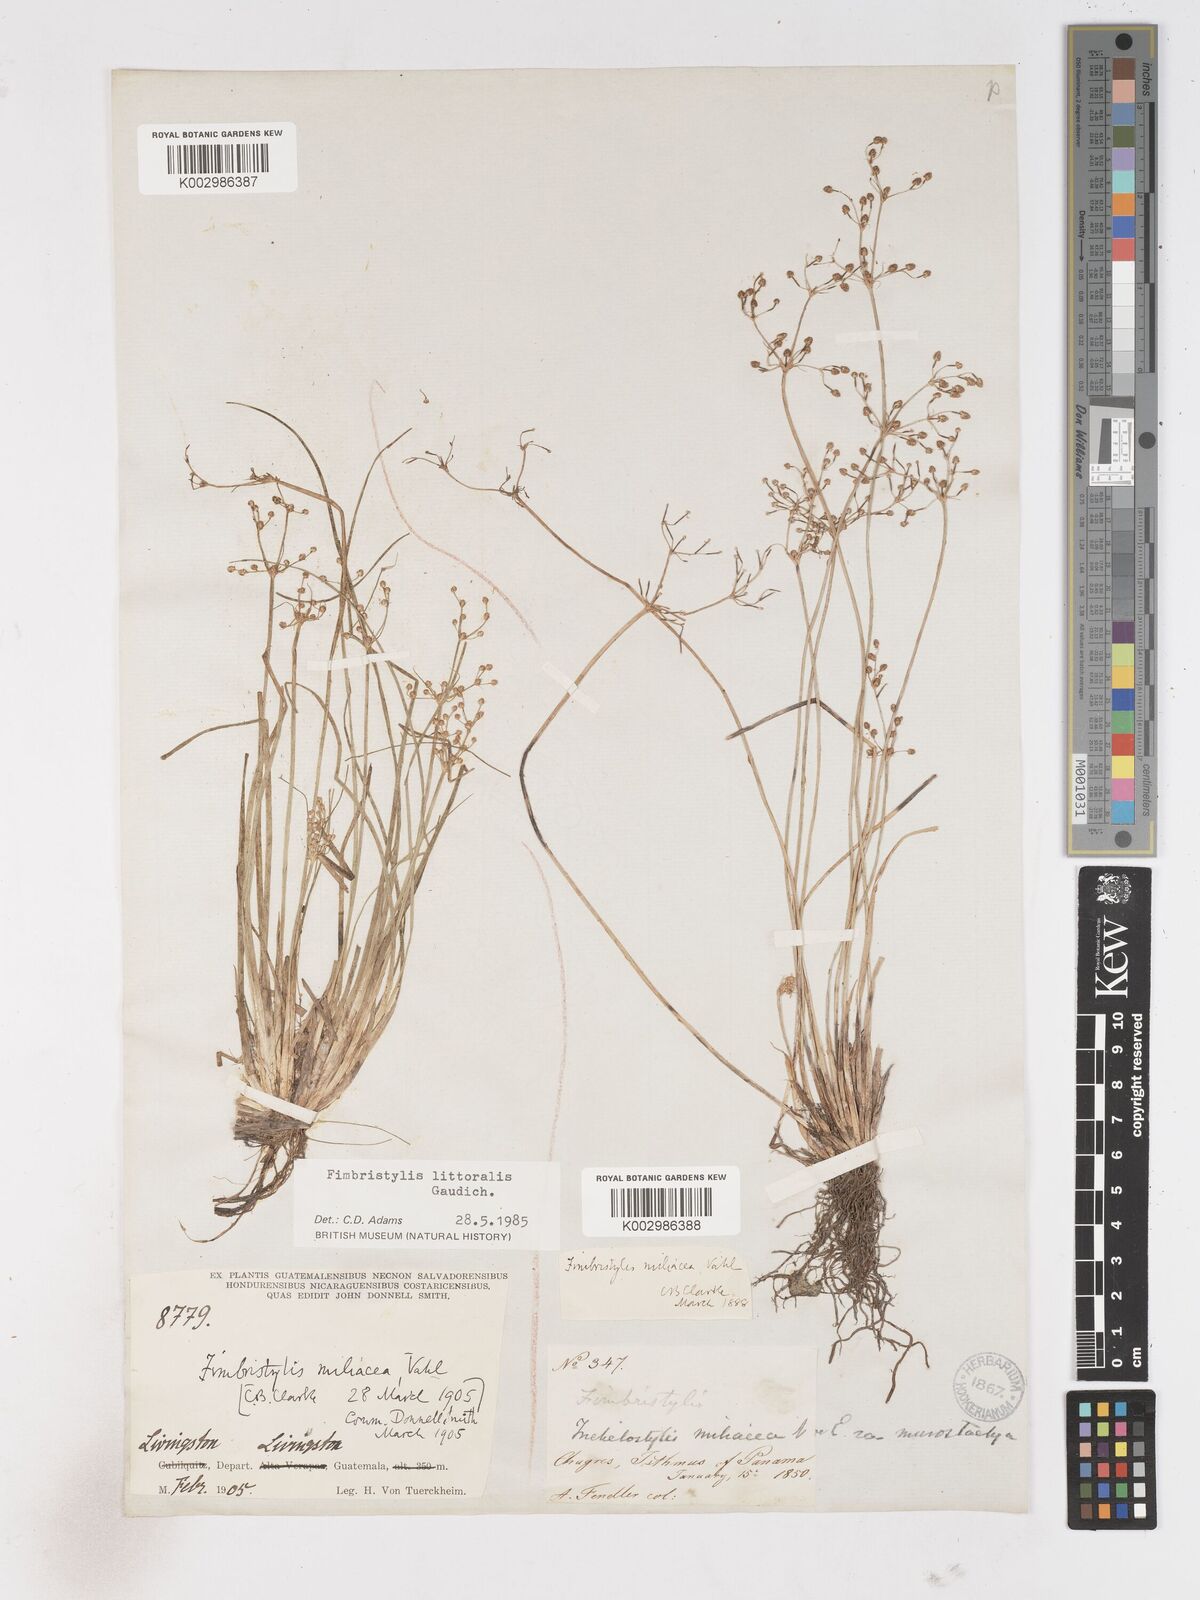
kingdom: Plantae
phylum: Tracheophyta
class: Liliopsida
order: Poales
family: Cyperaceae
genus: Fimbristylis
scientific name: Fimbristylis littoralis
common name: Fimbry
